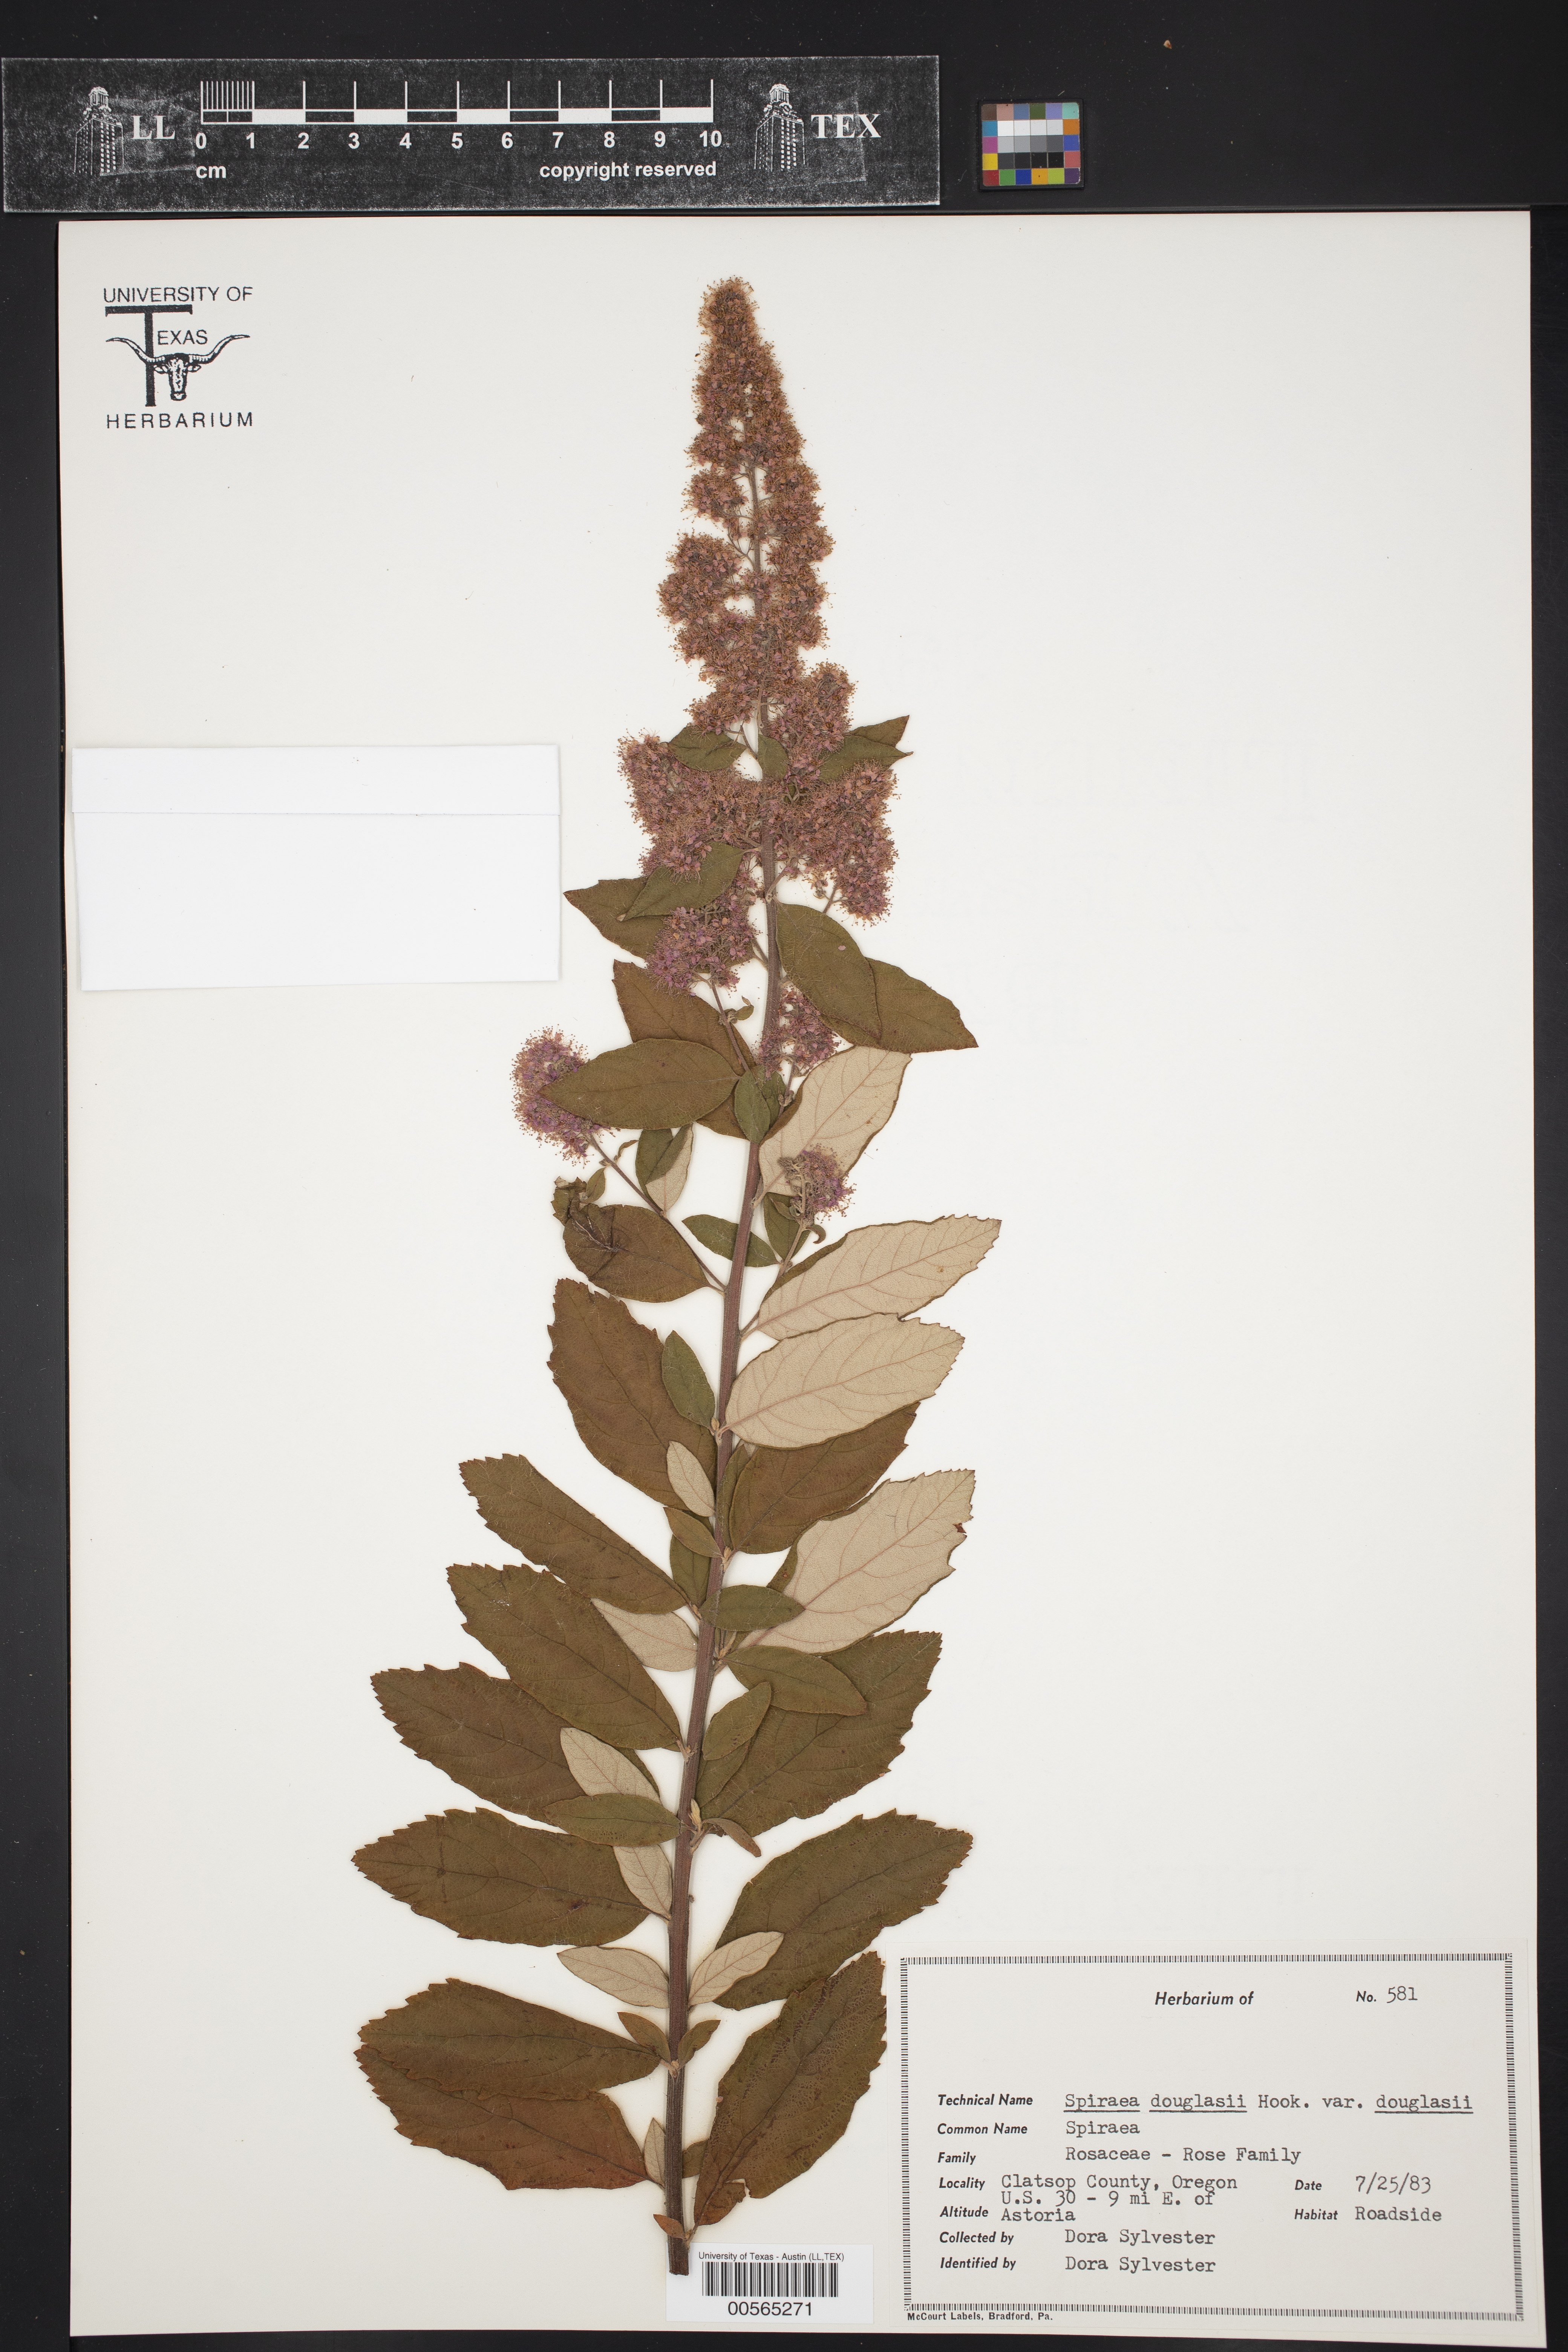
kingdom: Plantae
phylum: Tracheophyta
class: Magnoliopsida
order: Rosales
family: Rosaceae
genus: Spiraea
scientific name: Spiraea douglasii
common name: Steeplebush
